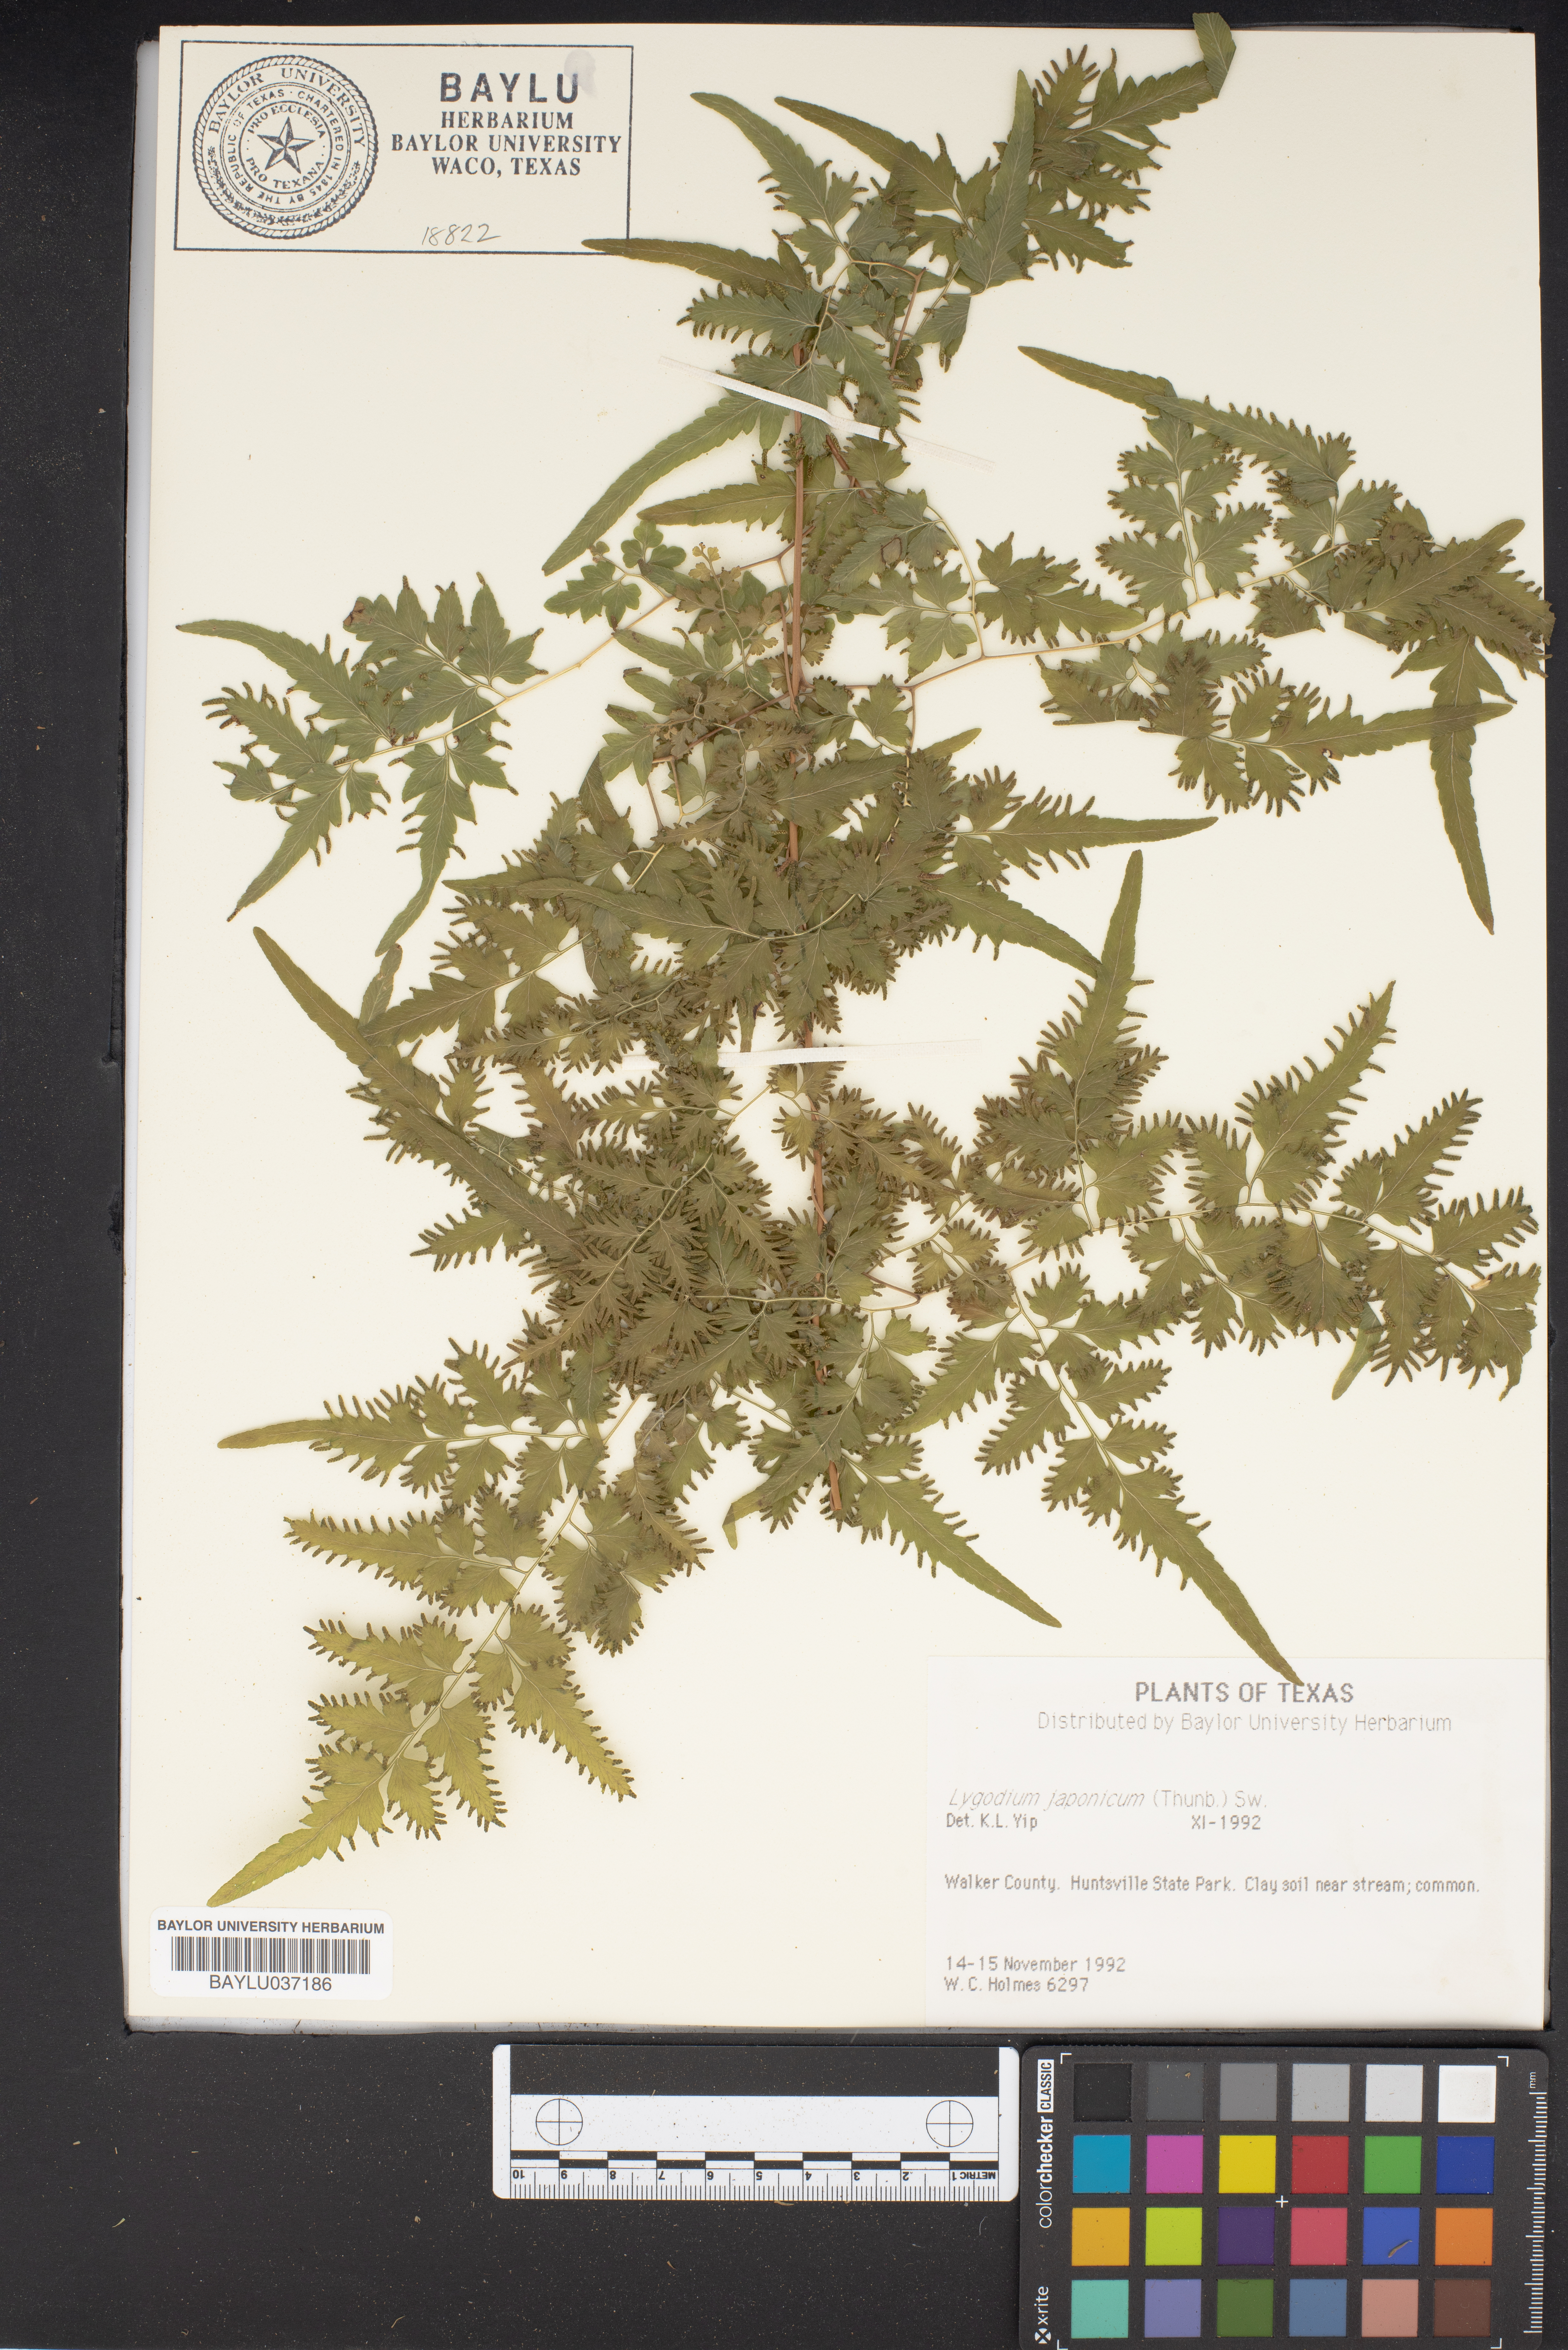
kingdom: Plantae
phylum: Tracheophyta
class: Polypodiopsida
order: Schizaeales
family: Lygodiaceae
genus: Lygodium
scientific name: Lygodium japonicum
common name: Japanese climbing fern
